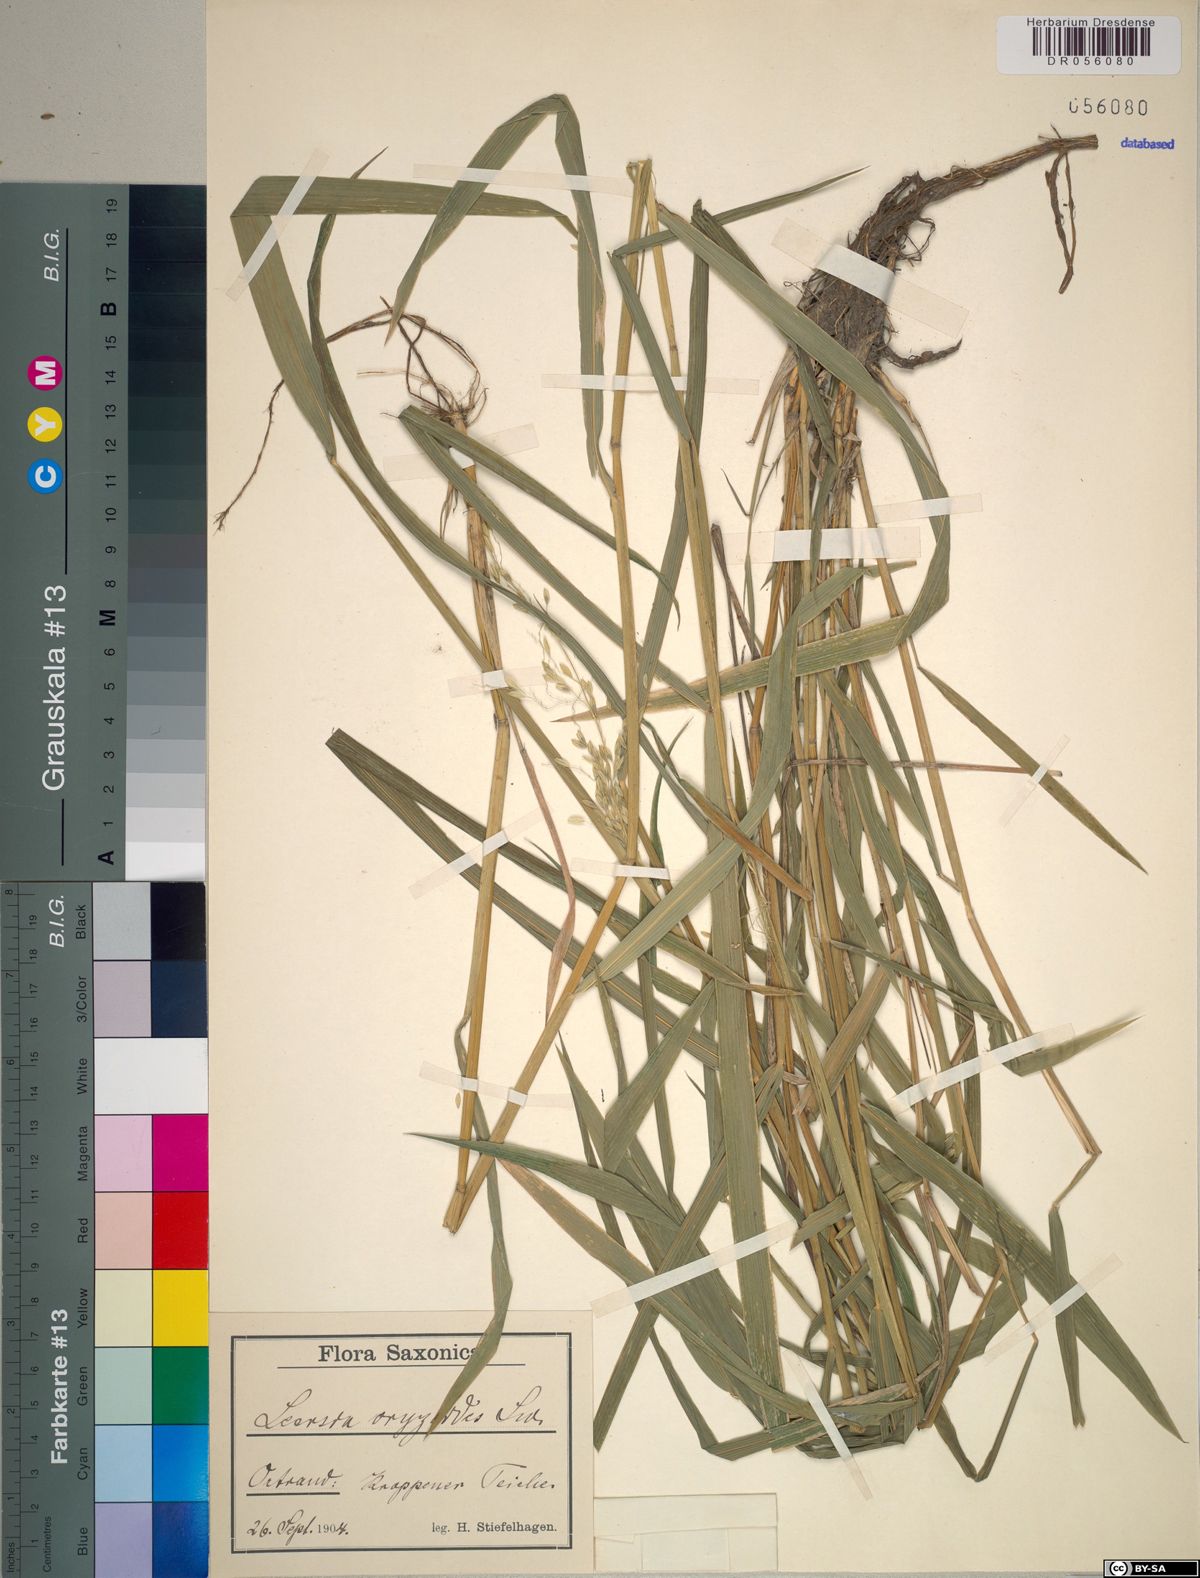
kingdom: Plantae
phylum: Tracheophyta
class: Liliopsida
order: Poales
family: Poaceae
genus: Leersia
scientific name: Leersia oryzoides
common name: Cut-grass
